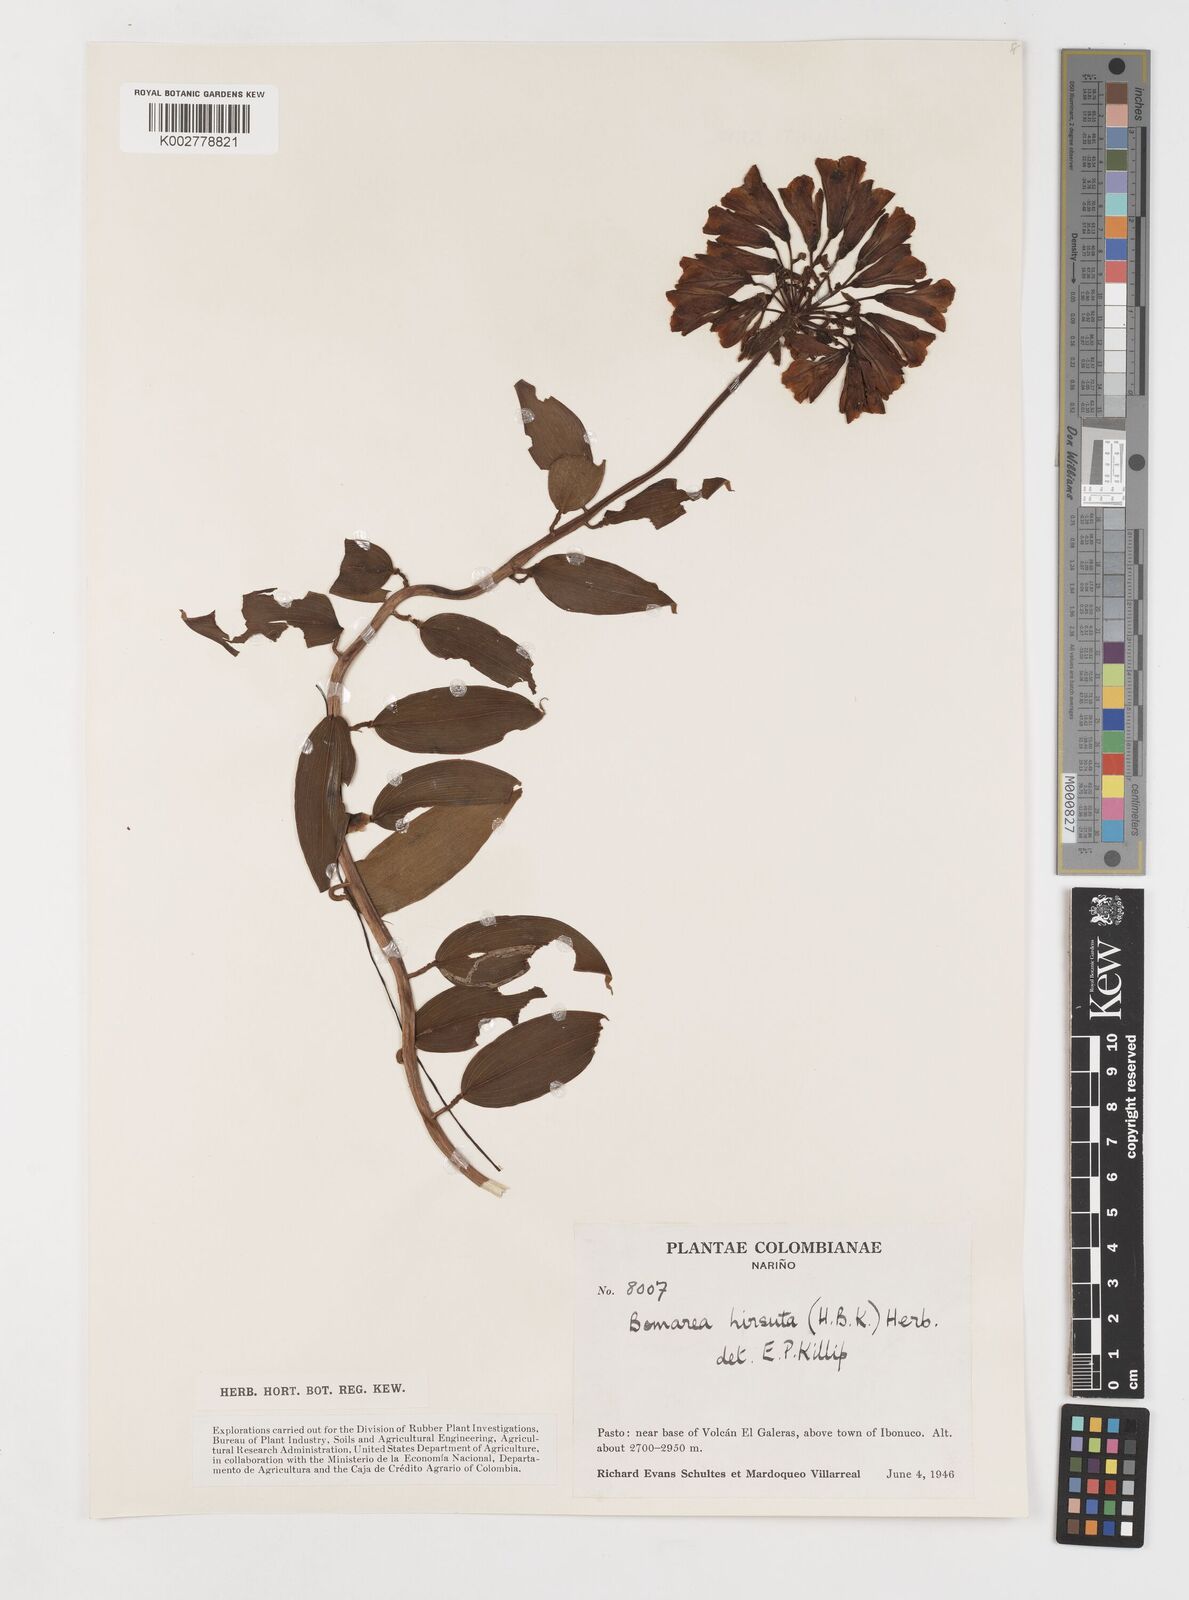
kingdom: Plantae
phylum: Tracheophyta
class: Liliopsida
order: Liliales
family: Alstroemeriaceae
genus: Bomarea
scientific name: Bomarea hirsuta
